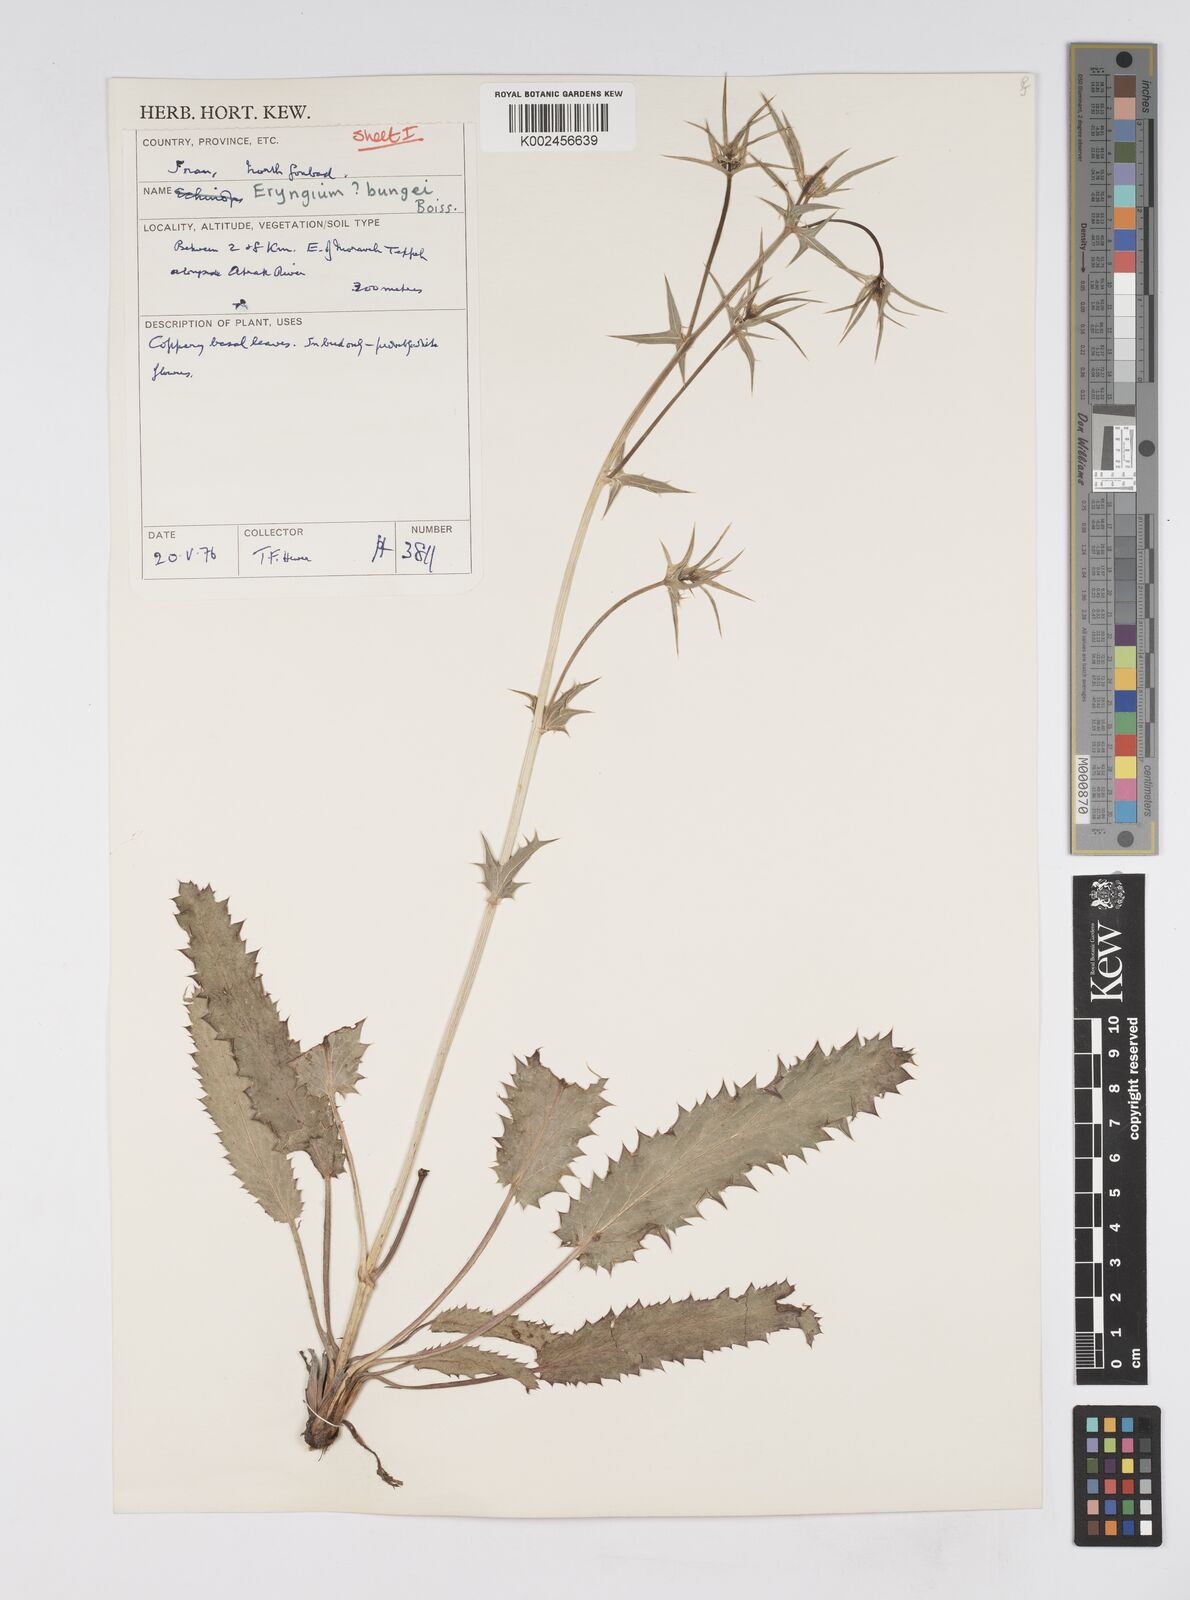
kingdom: Plantae
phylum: Tracheophyta
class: Magnoliopsida
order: Apiales
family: Apiaceae
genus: Eryngium
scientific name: Eryngium bungei
